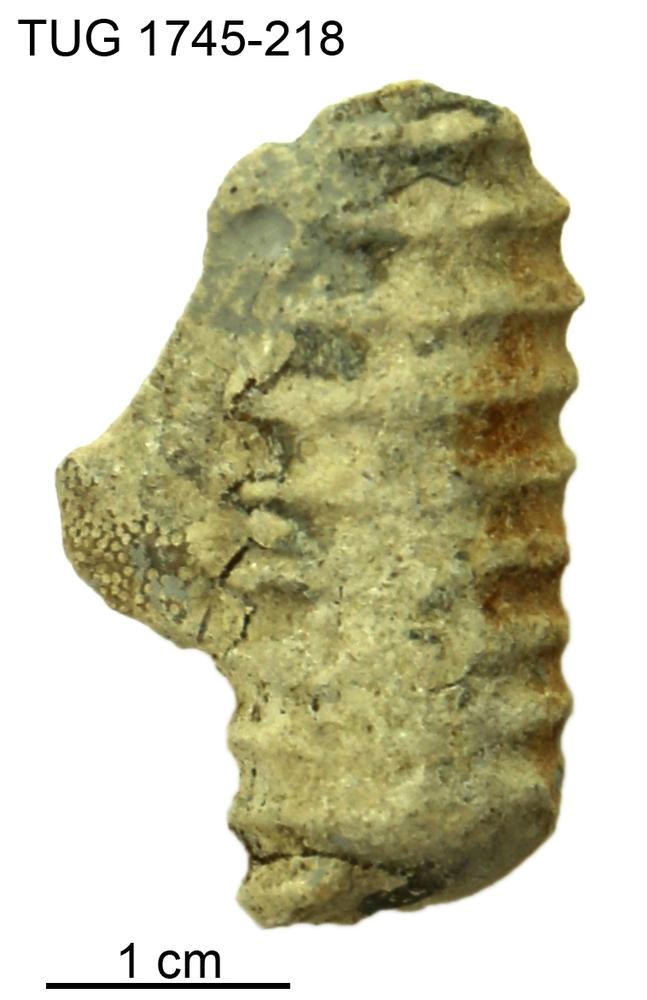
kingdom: Animalia
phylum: Mollusca
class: Cephalopoda
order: Orthocerida
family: Dawsonoceratidae
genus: Palaeodawsonocerina
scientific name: Palaeodawsonocerina Spyroceras senckenbergi
